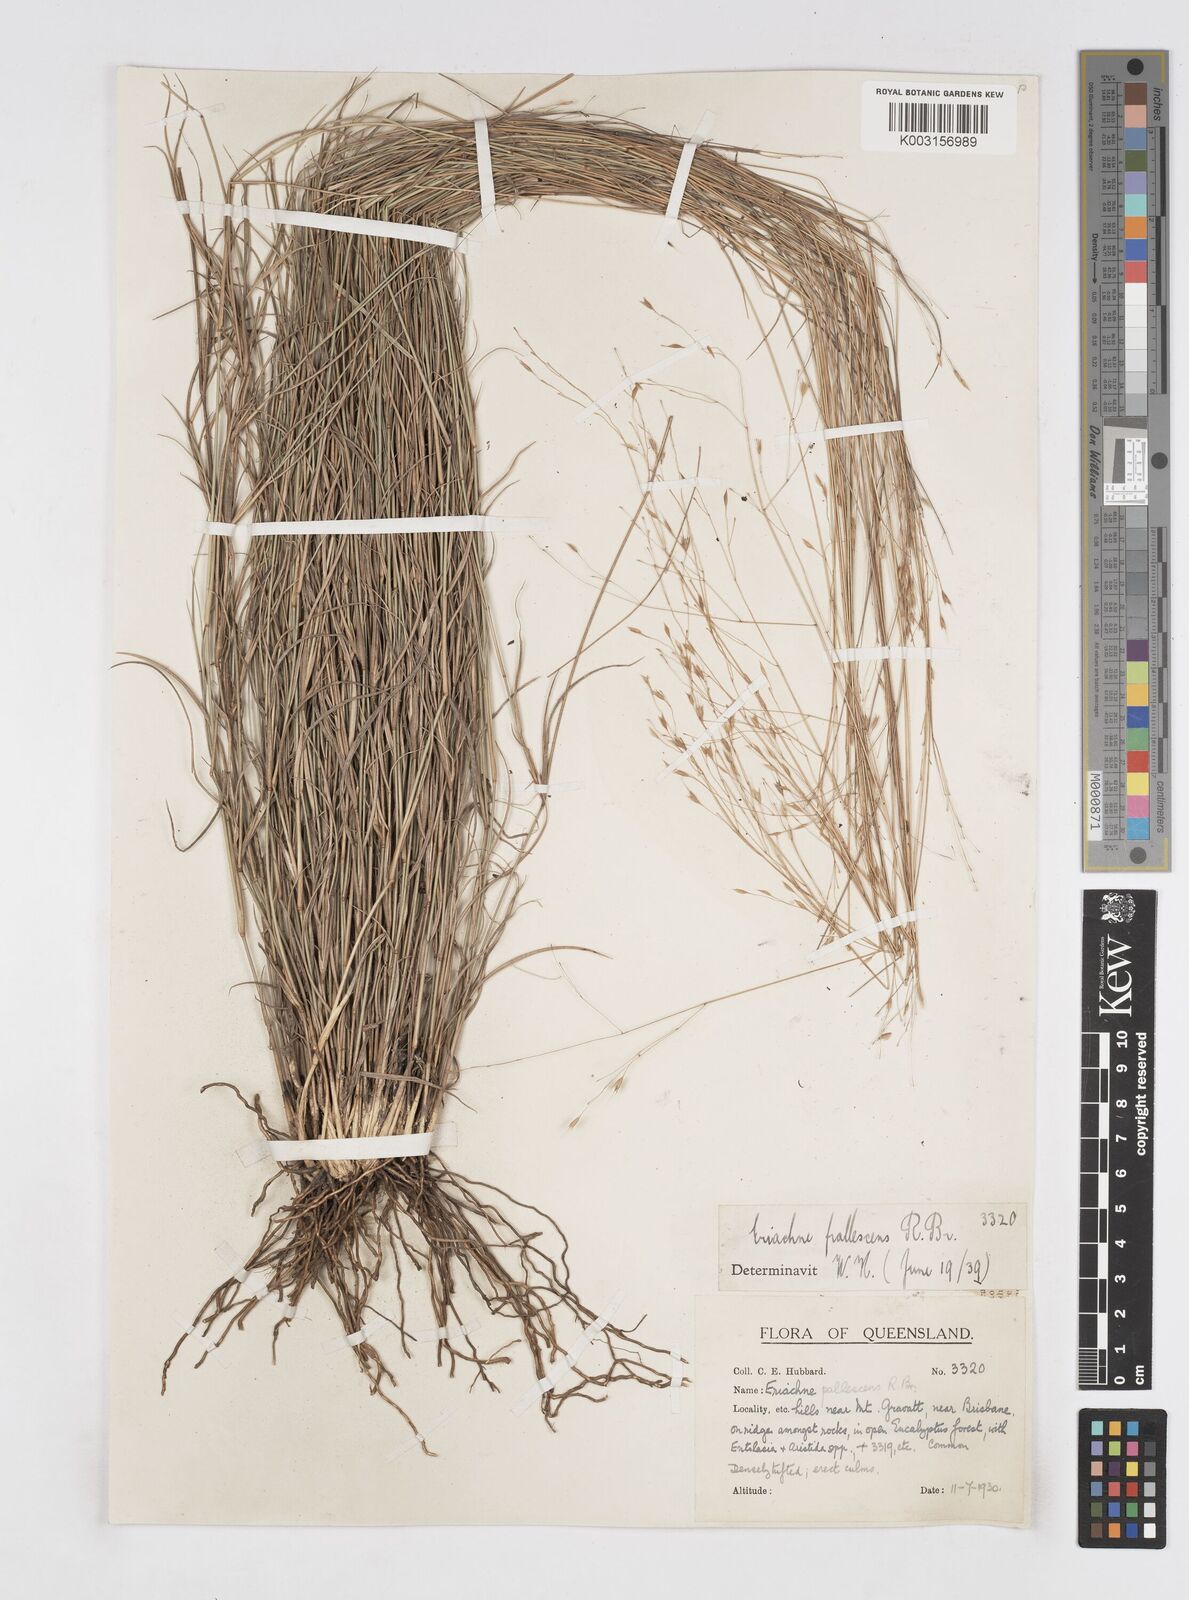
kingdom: Plantae
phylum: Tracheophyta
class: Liliopsida
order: Poales
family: Poaceae
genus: Eriachne
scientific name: Eriachne pallescens
